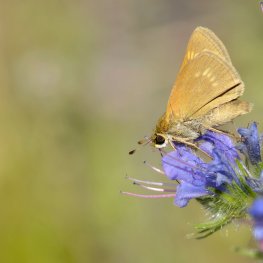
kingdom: Animalia
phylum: Arthropoda
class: Insecta
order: Lepidoptera
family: Hesperiidae
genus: Polites
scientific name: Polites
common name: Crossline Skipper
